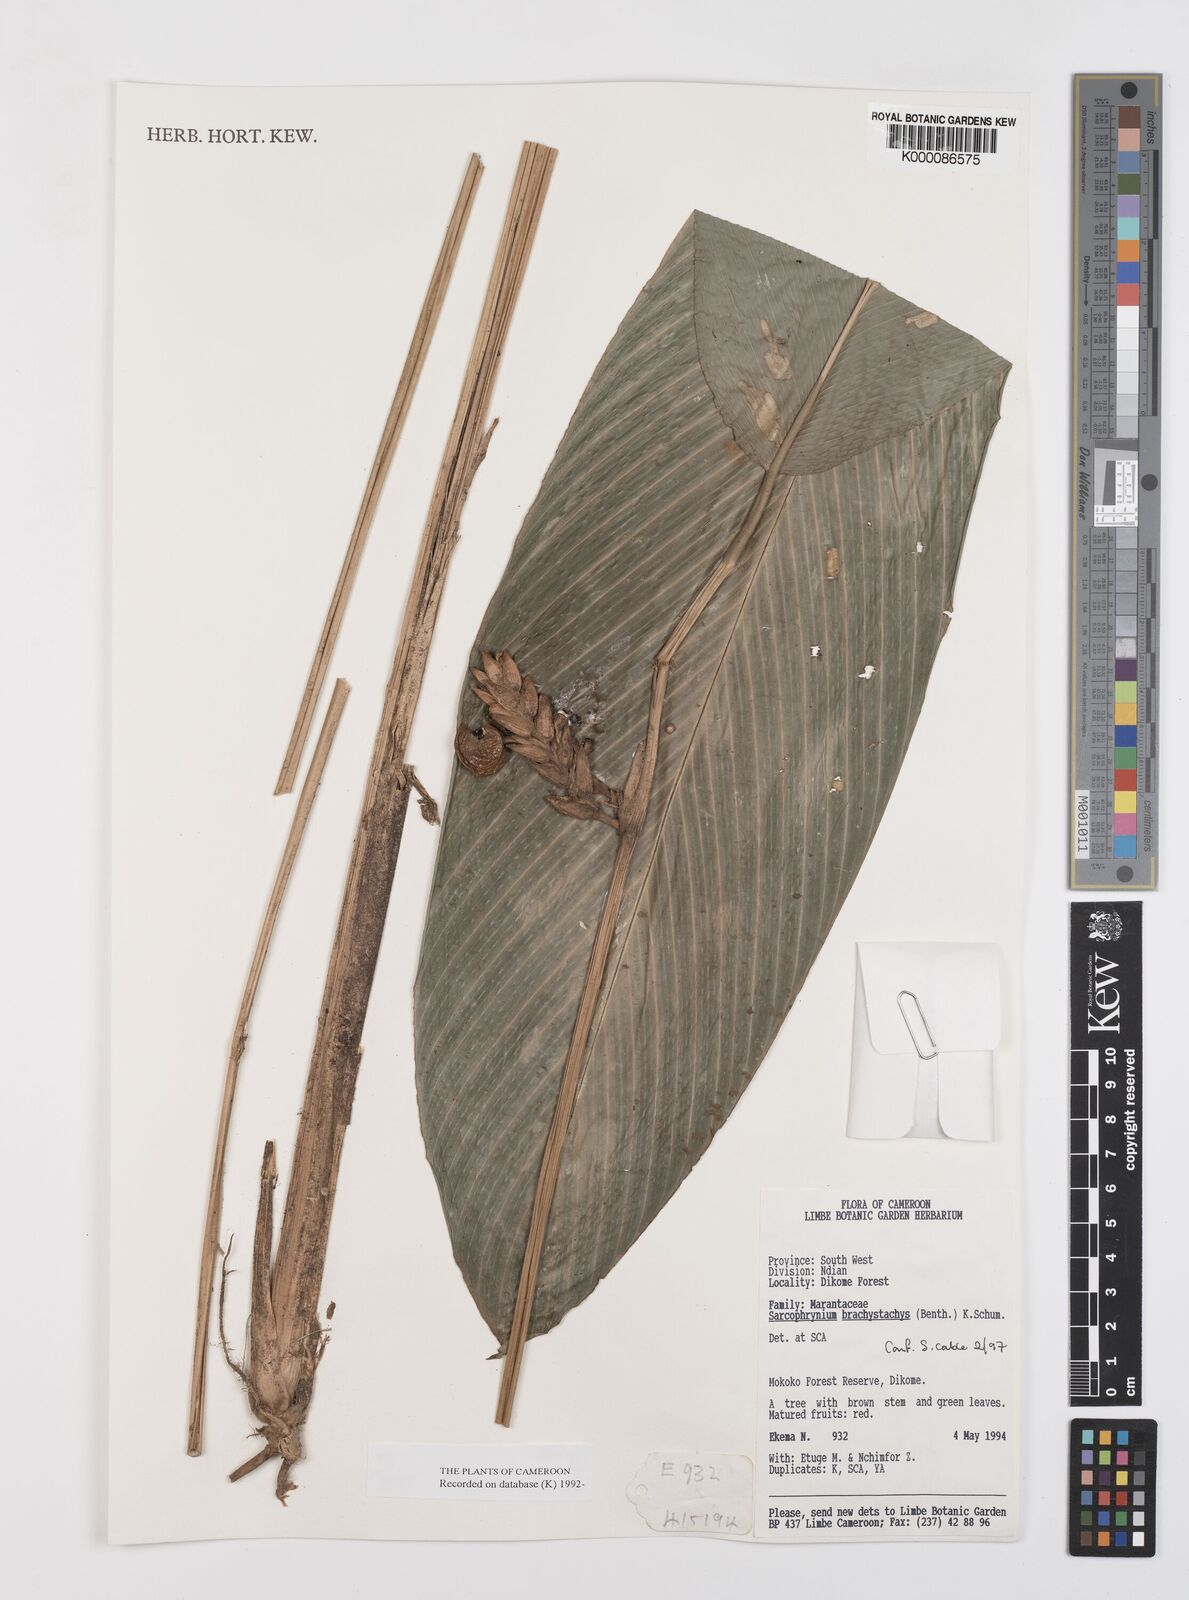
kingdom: Plantae
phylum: Tracheophyta
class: Liliopsida
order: Zingiberales
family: Marantaceae
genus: Sarcophrynium
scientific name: Sarcophrynium
